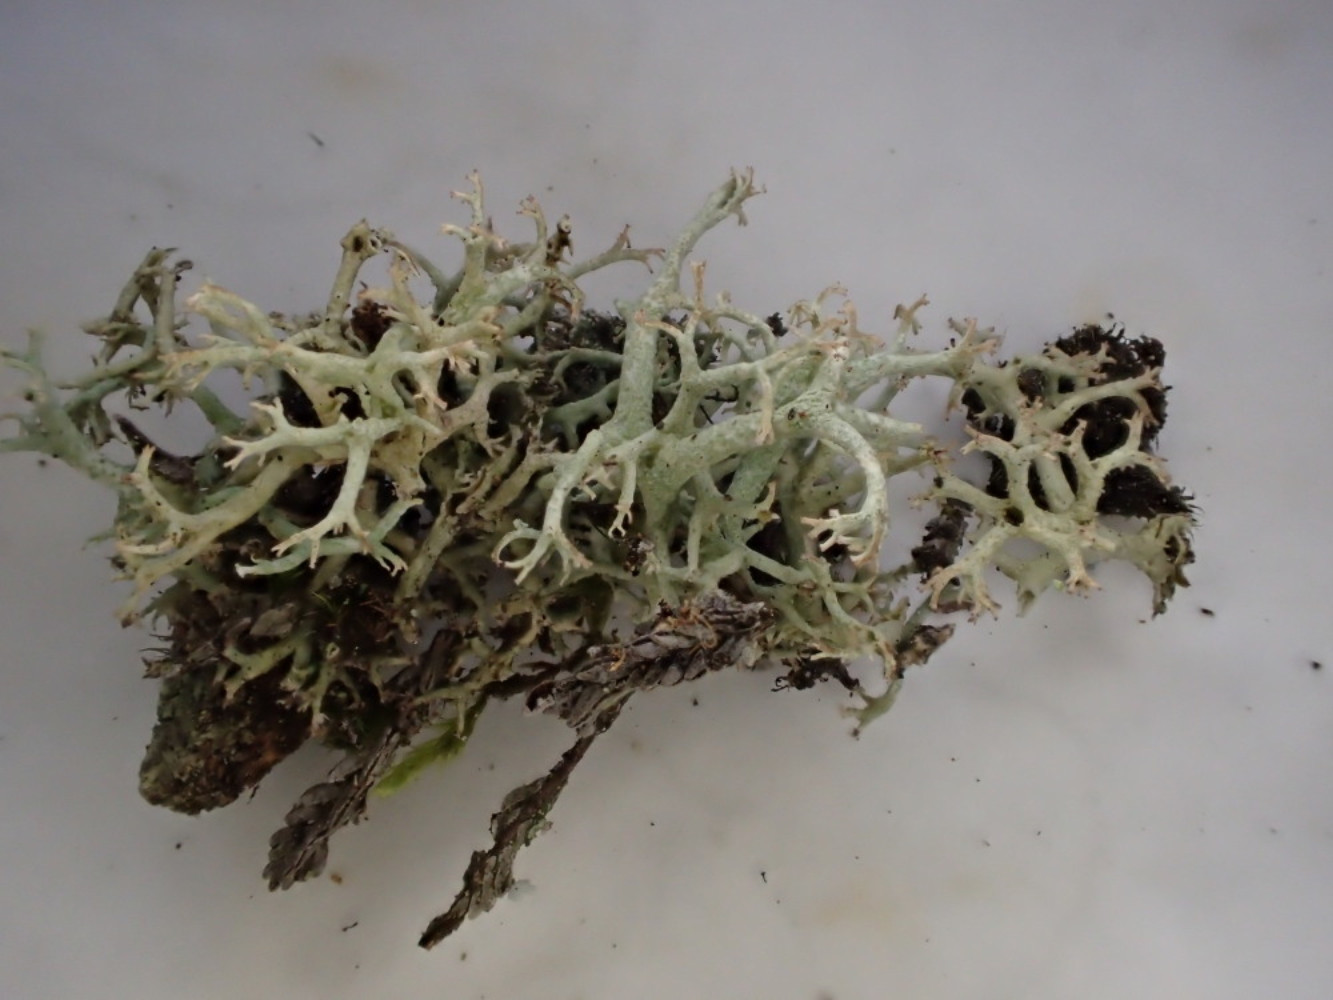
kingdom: Fungi
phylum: Ascomycota
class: Lecanoromycetes
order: Lecanorales
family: Cladoniaceae
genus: Cladonia
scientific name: Cladonia portentosa
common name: hede-rensdyrlav
